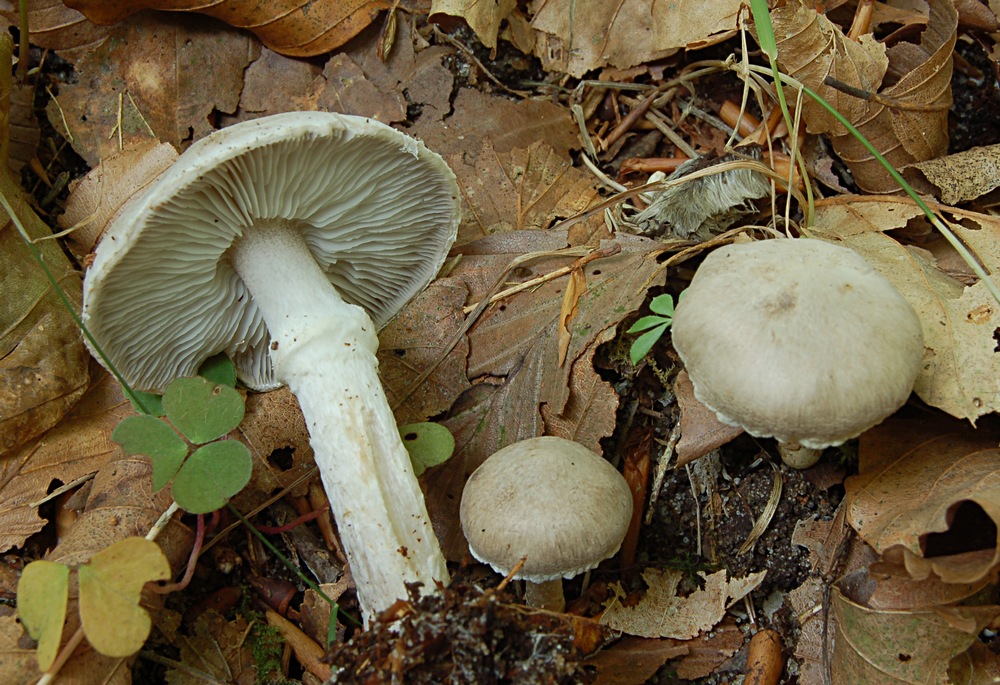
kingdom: Fungi
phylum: Basidiomycota
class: Agaricomycetes
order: Agaricales
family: Tricholomataceae
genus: Tricholoma
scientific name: Tricholoma cingulatum
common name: ring-ridderhat
